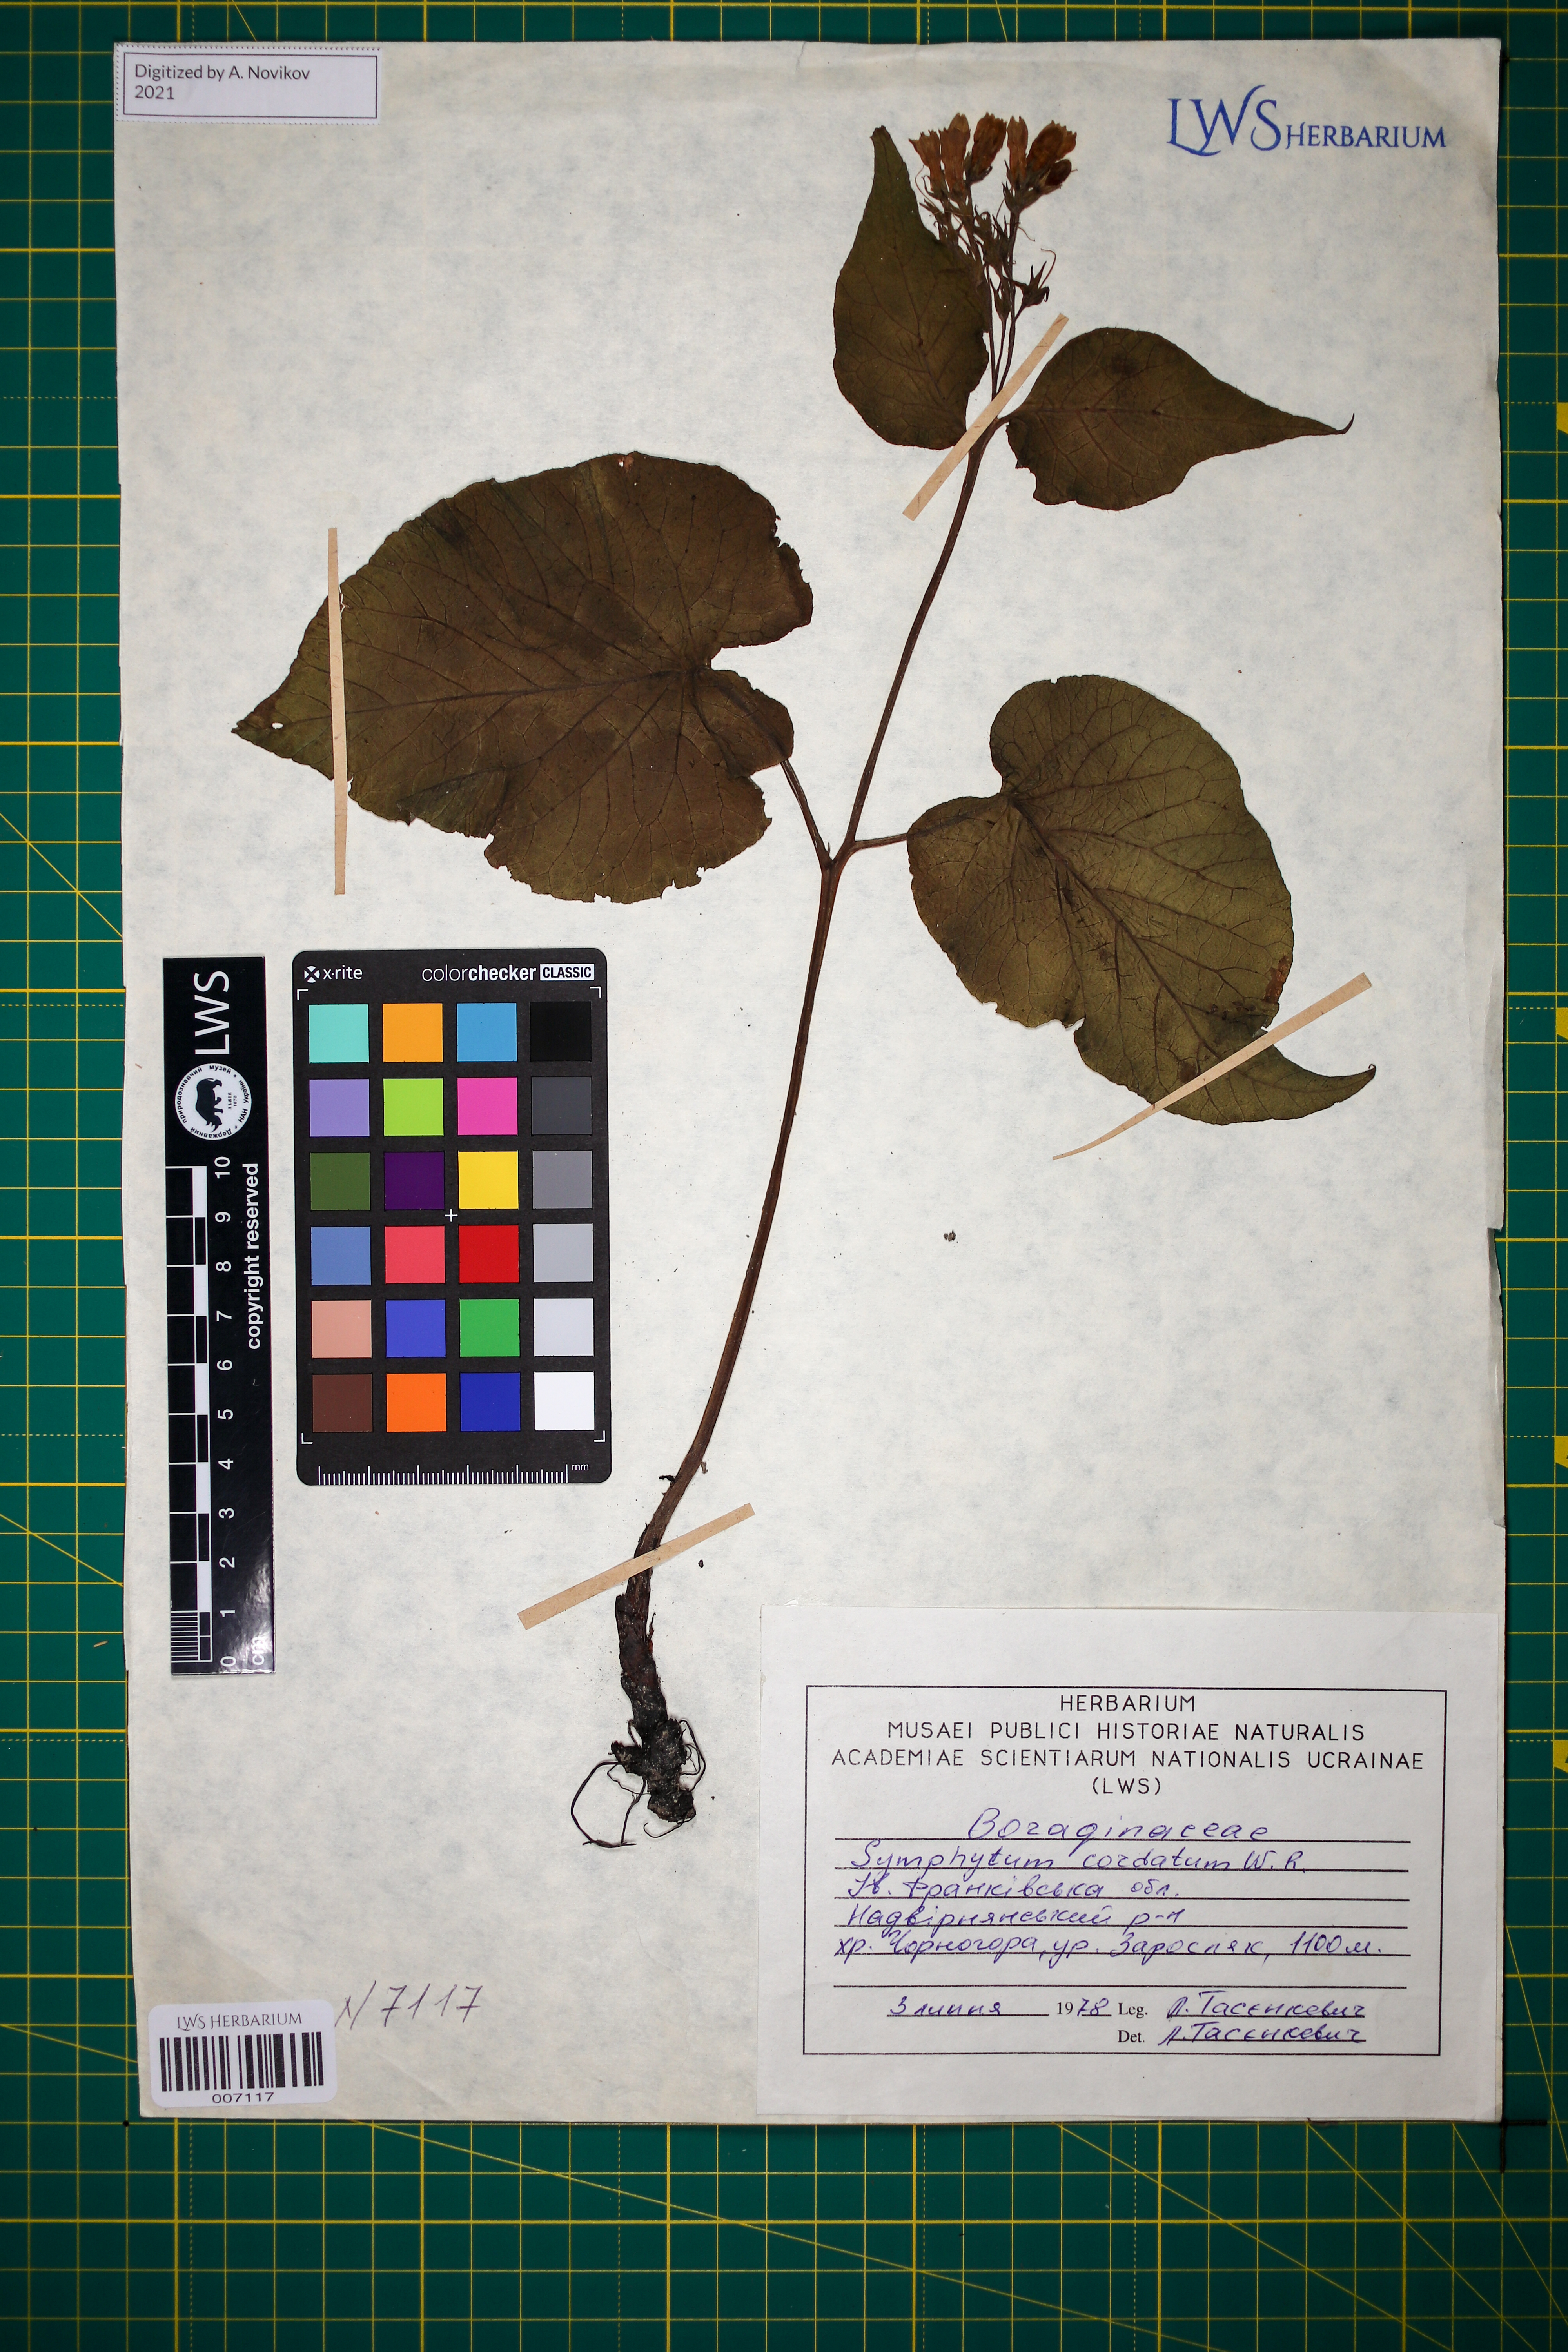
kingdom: Plantae
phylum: Tracheophyta
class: Magnoliopsida
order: Boraginales
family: Boraginaceae
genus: Symphytum
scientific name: Symphytum cordatum
